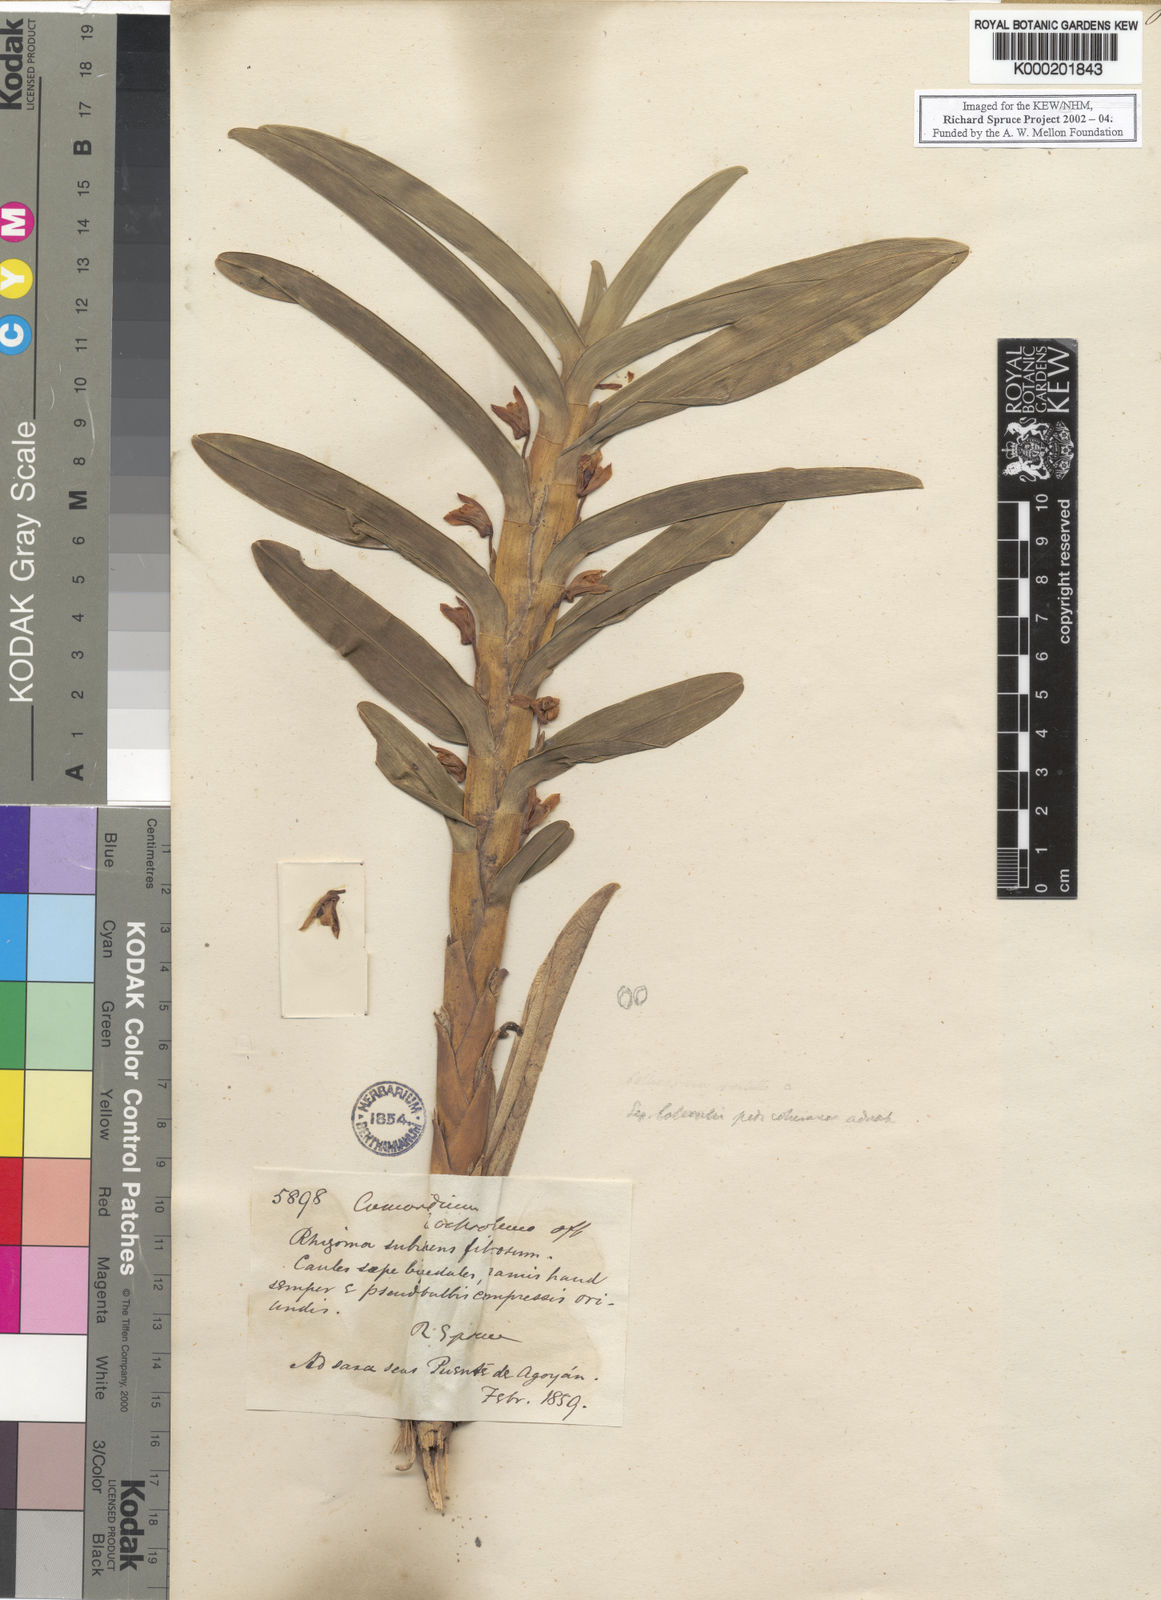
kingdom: Plantae
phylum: Tracheophyta
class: Liliopsida
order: Asparagales
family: Orchidaceae
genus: Maxillaria
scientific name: Maxillaria funicaulis
